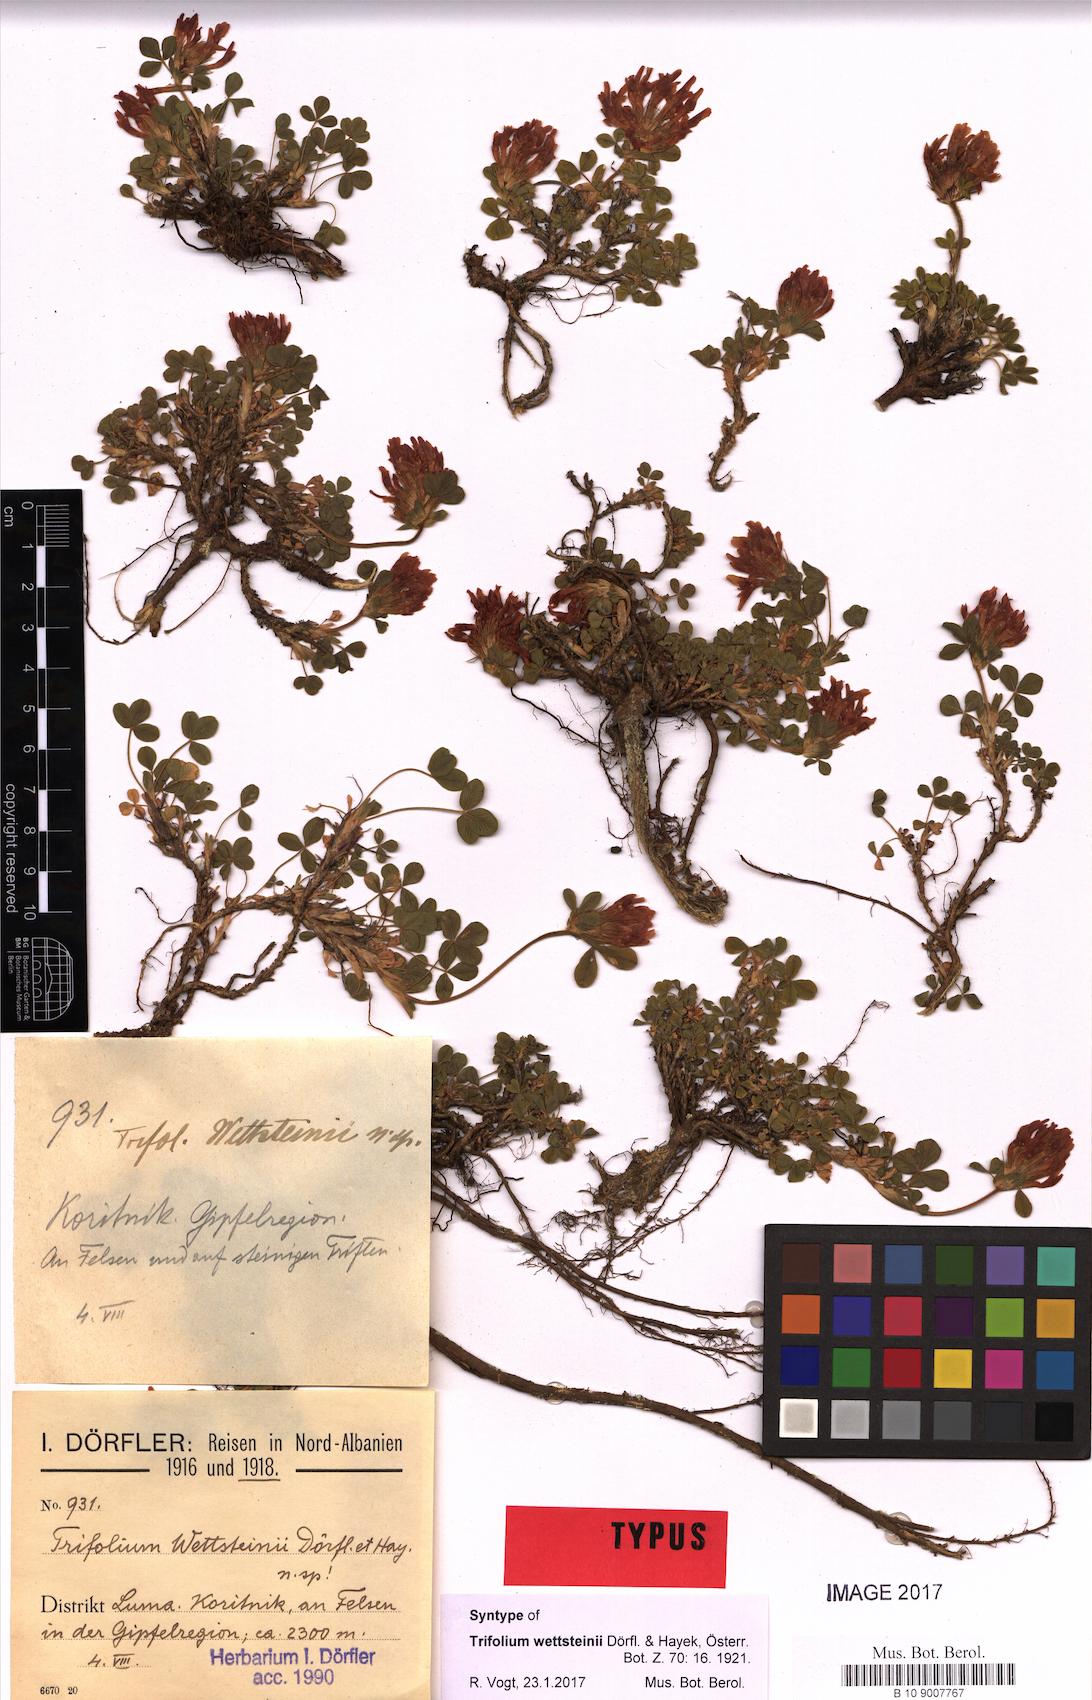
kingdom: Plantae
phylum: Tracheophyta
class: Magnoliopsida
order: Fabales
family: Fabaceae
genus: Trifolium
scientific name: Trifolium wettsteinii
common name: Wettstein's clover
